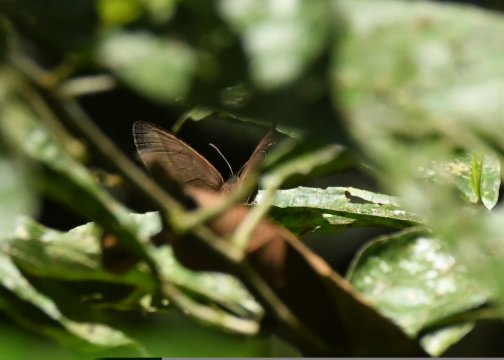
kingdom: Animalia
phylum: Arthropoda
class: Insecta
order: Lepidoptera
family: Nymphalidae
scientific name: Nymphalidae
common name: Brushfoots
